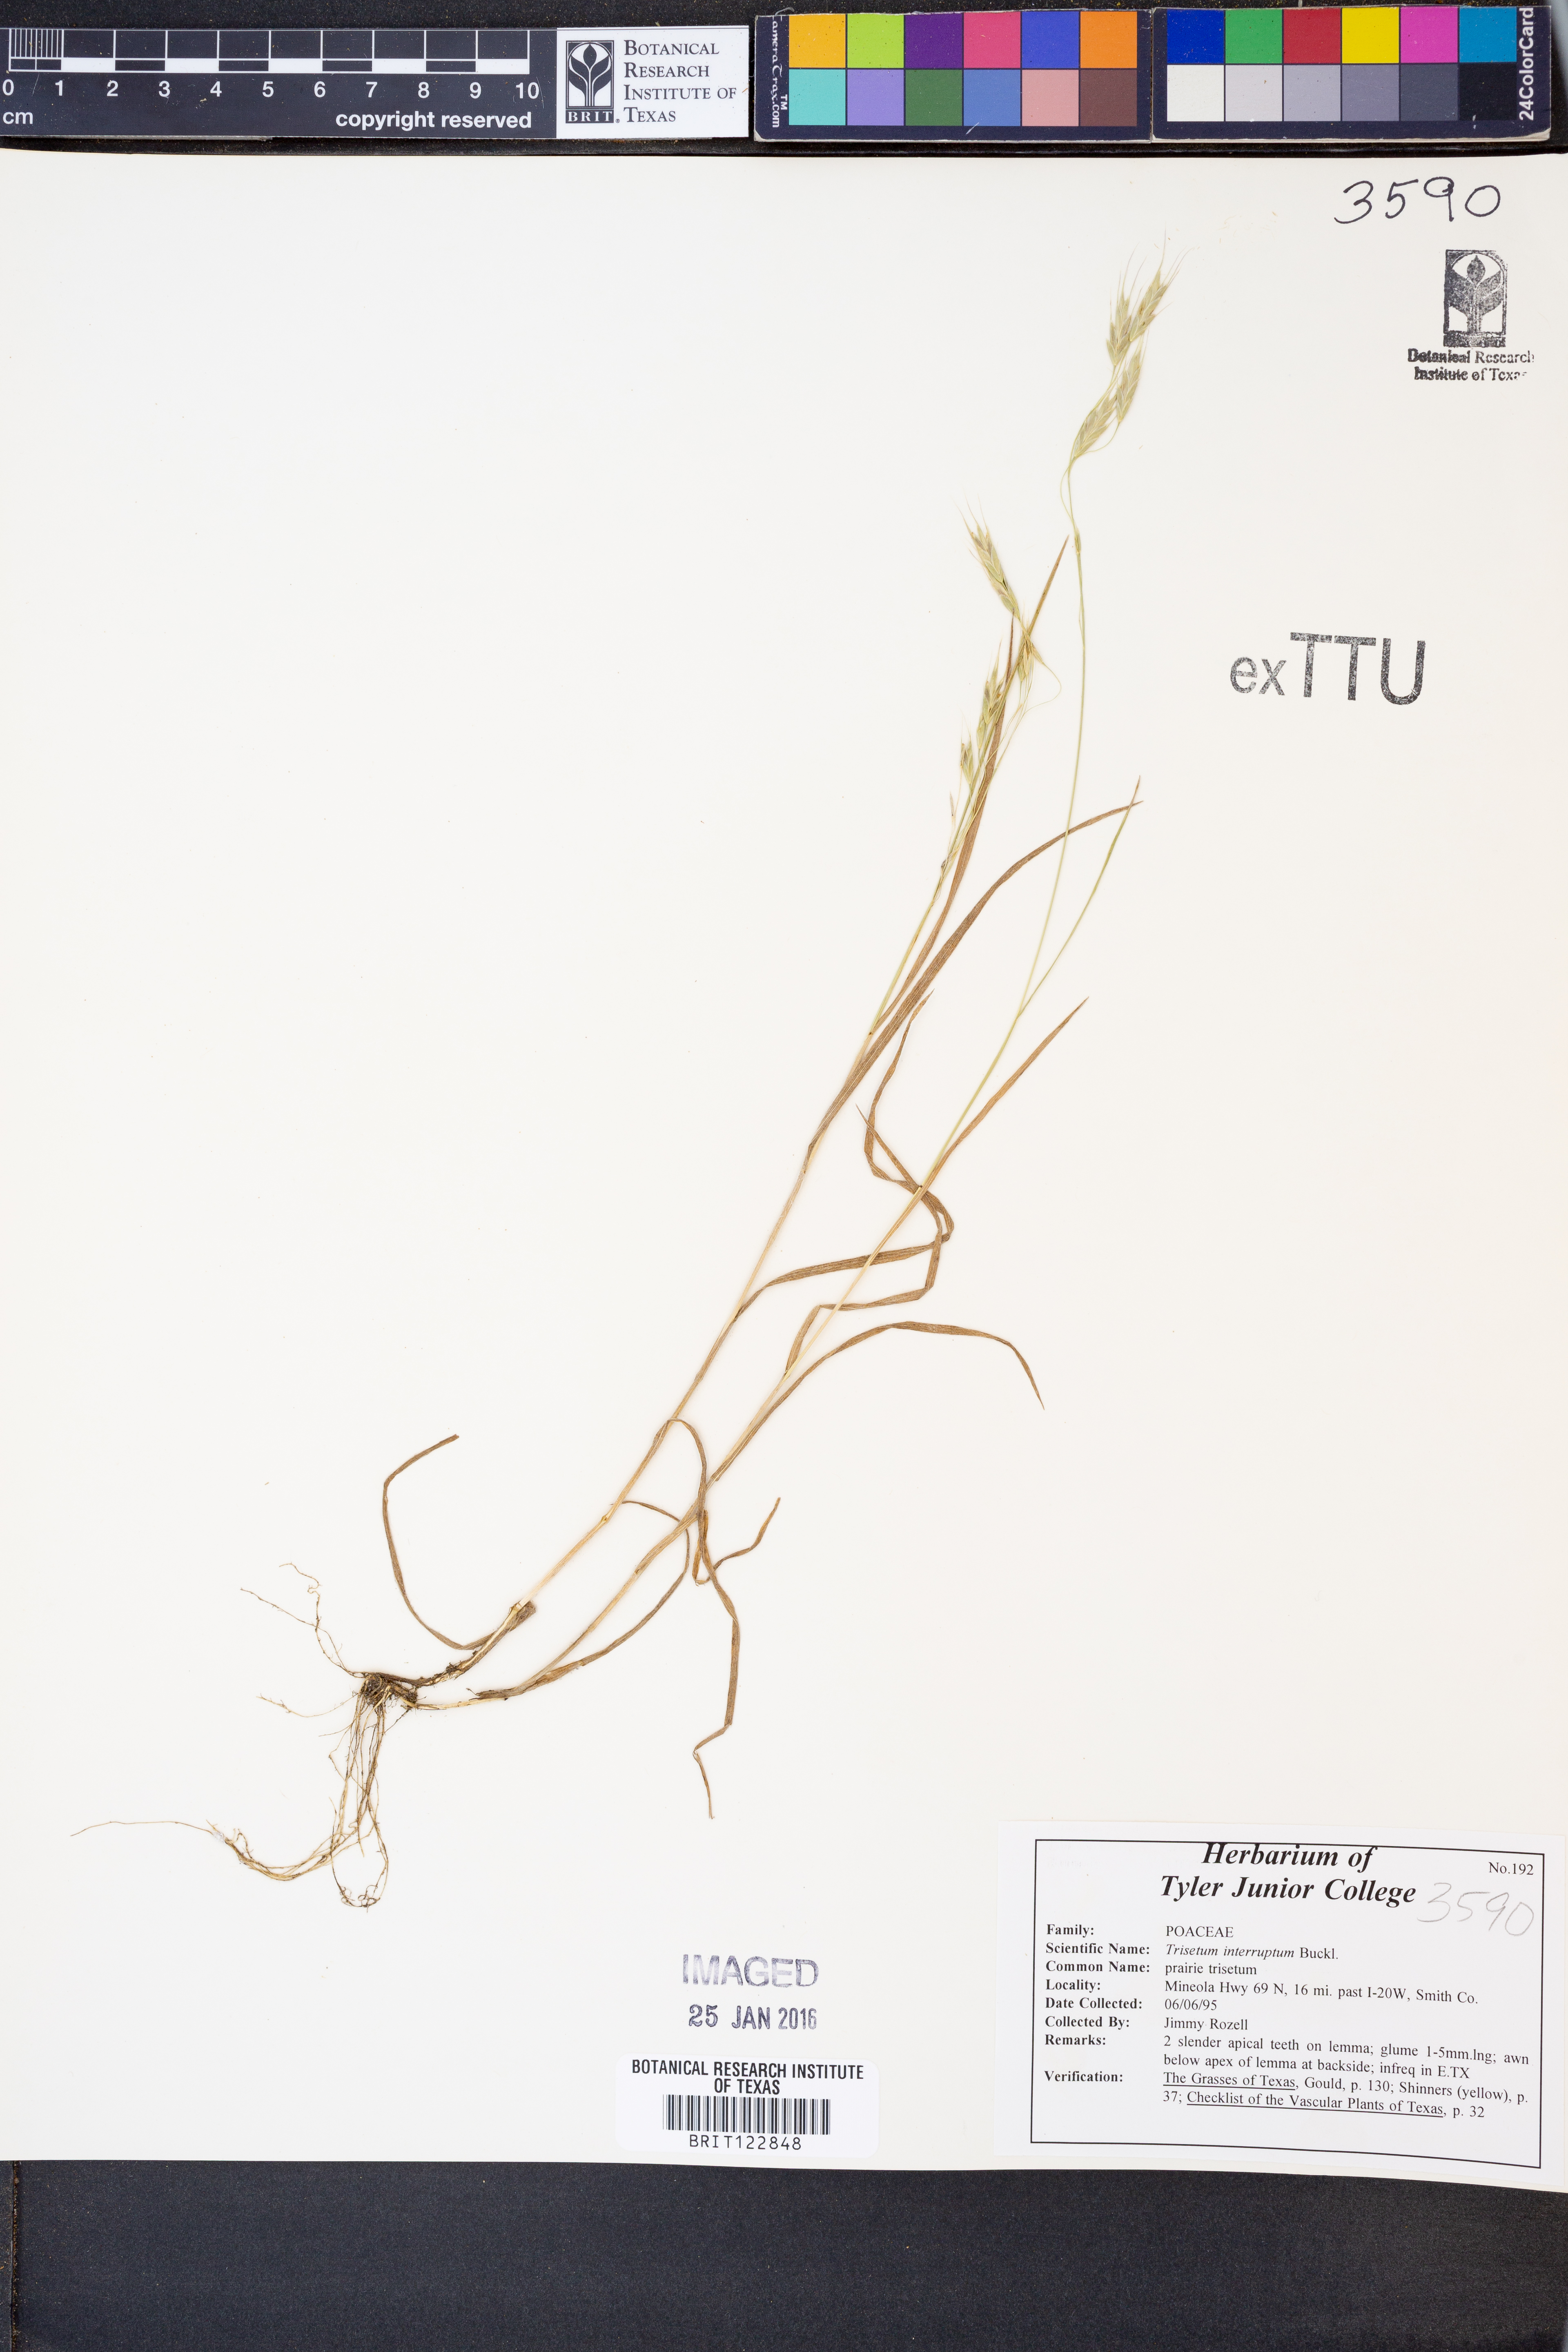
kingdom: Plantae
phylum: Tracheophyta
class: Liliopsida
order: Poales
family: Poaceae
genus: Sphenopholis
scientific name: Sphenopholis interrupta
